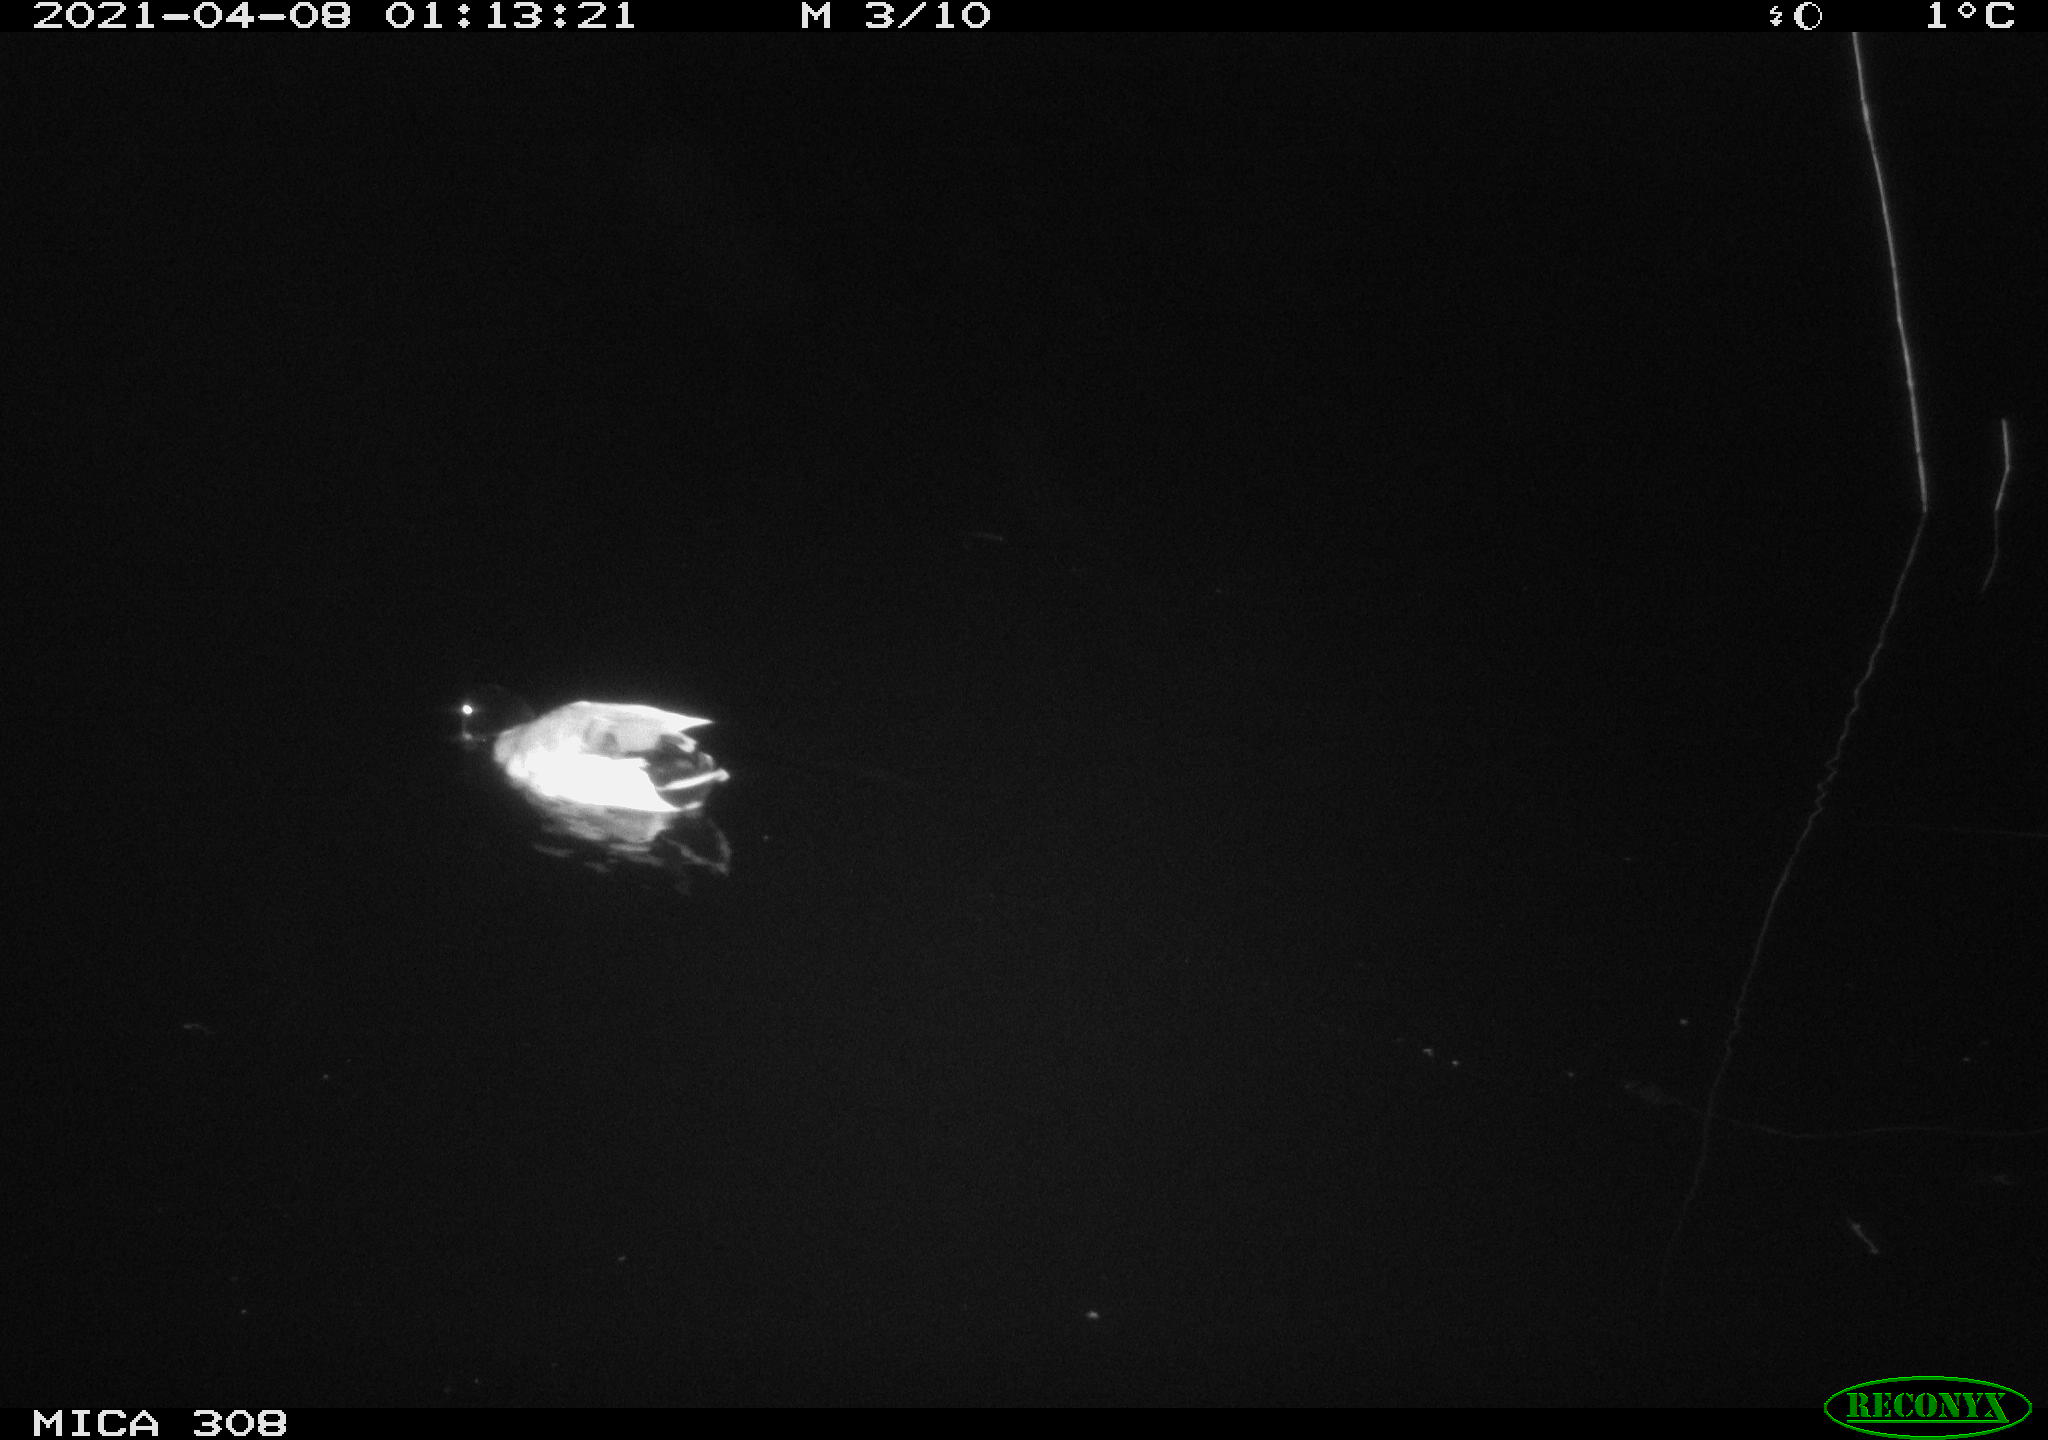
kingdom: Animalia
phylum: Chordata
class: Aves
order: Anseriformes
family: Anatidae
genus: Anas
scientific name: Anas platyrhynchos
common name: Mallard
